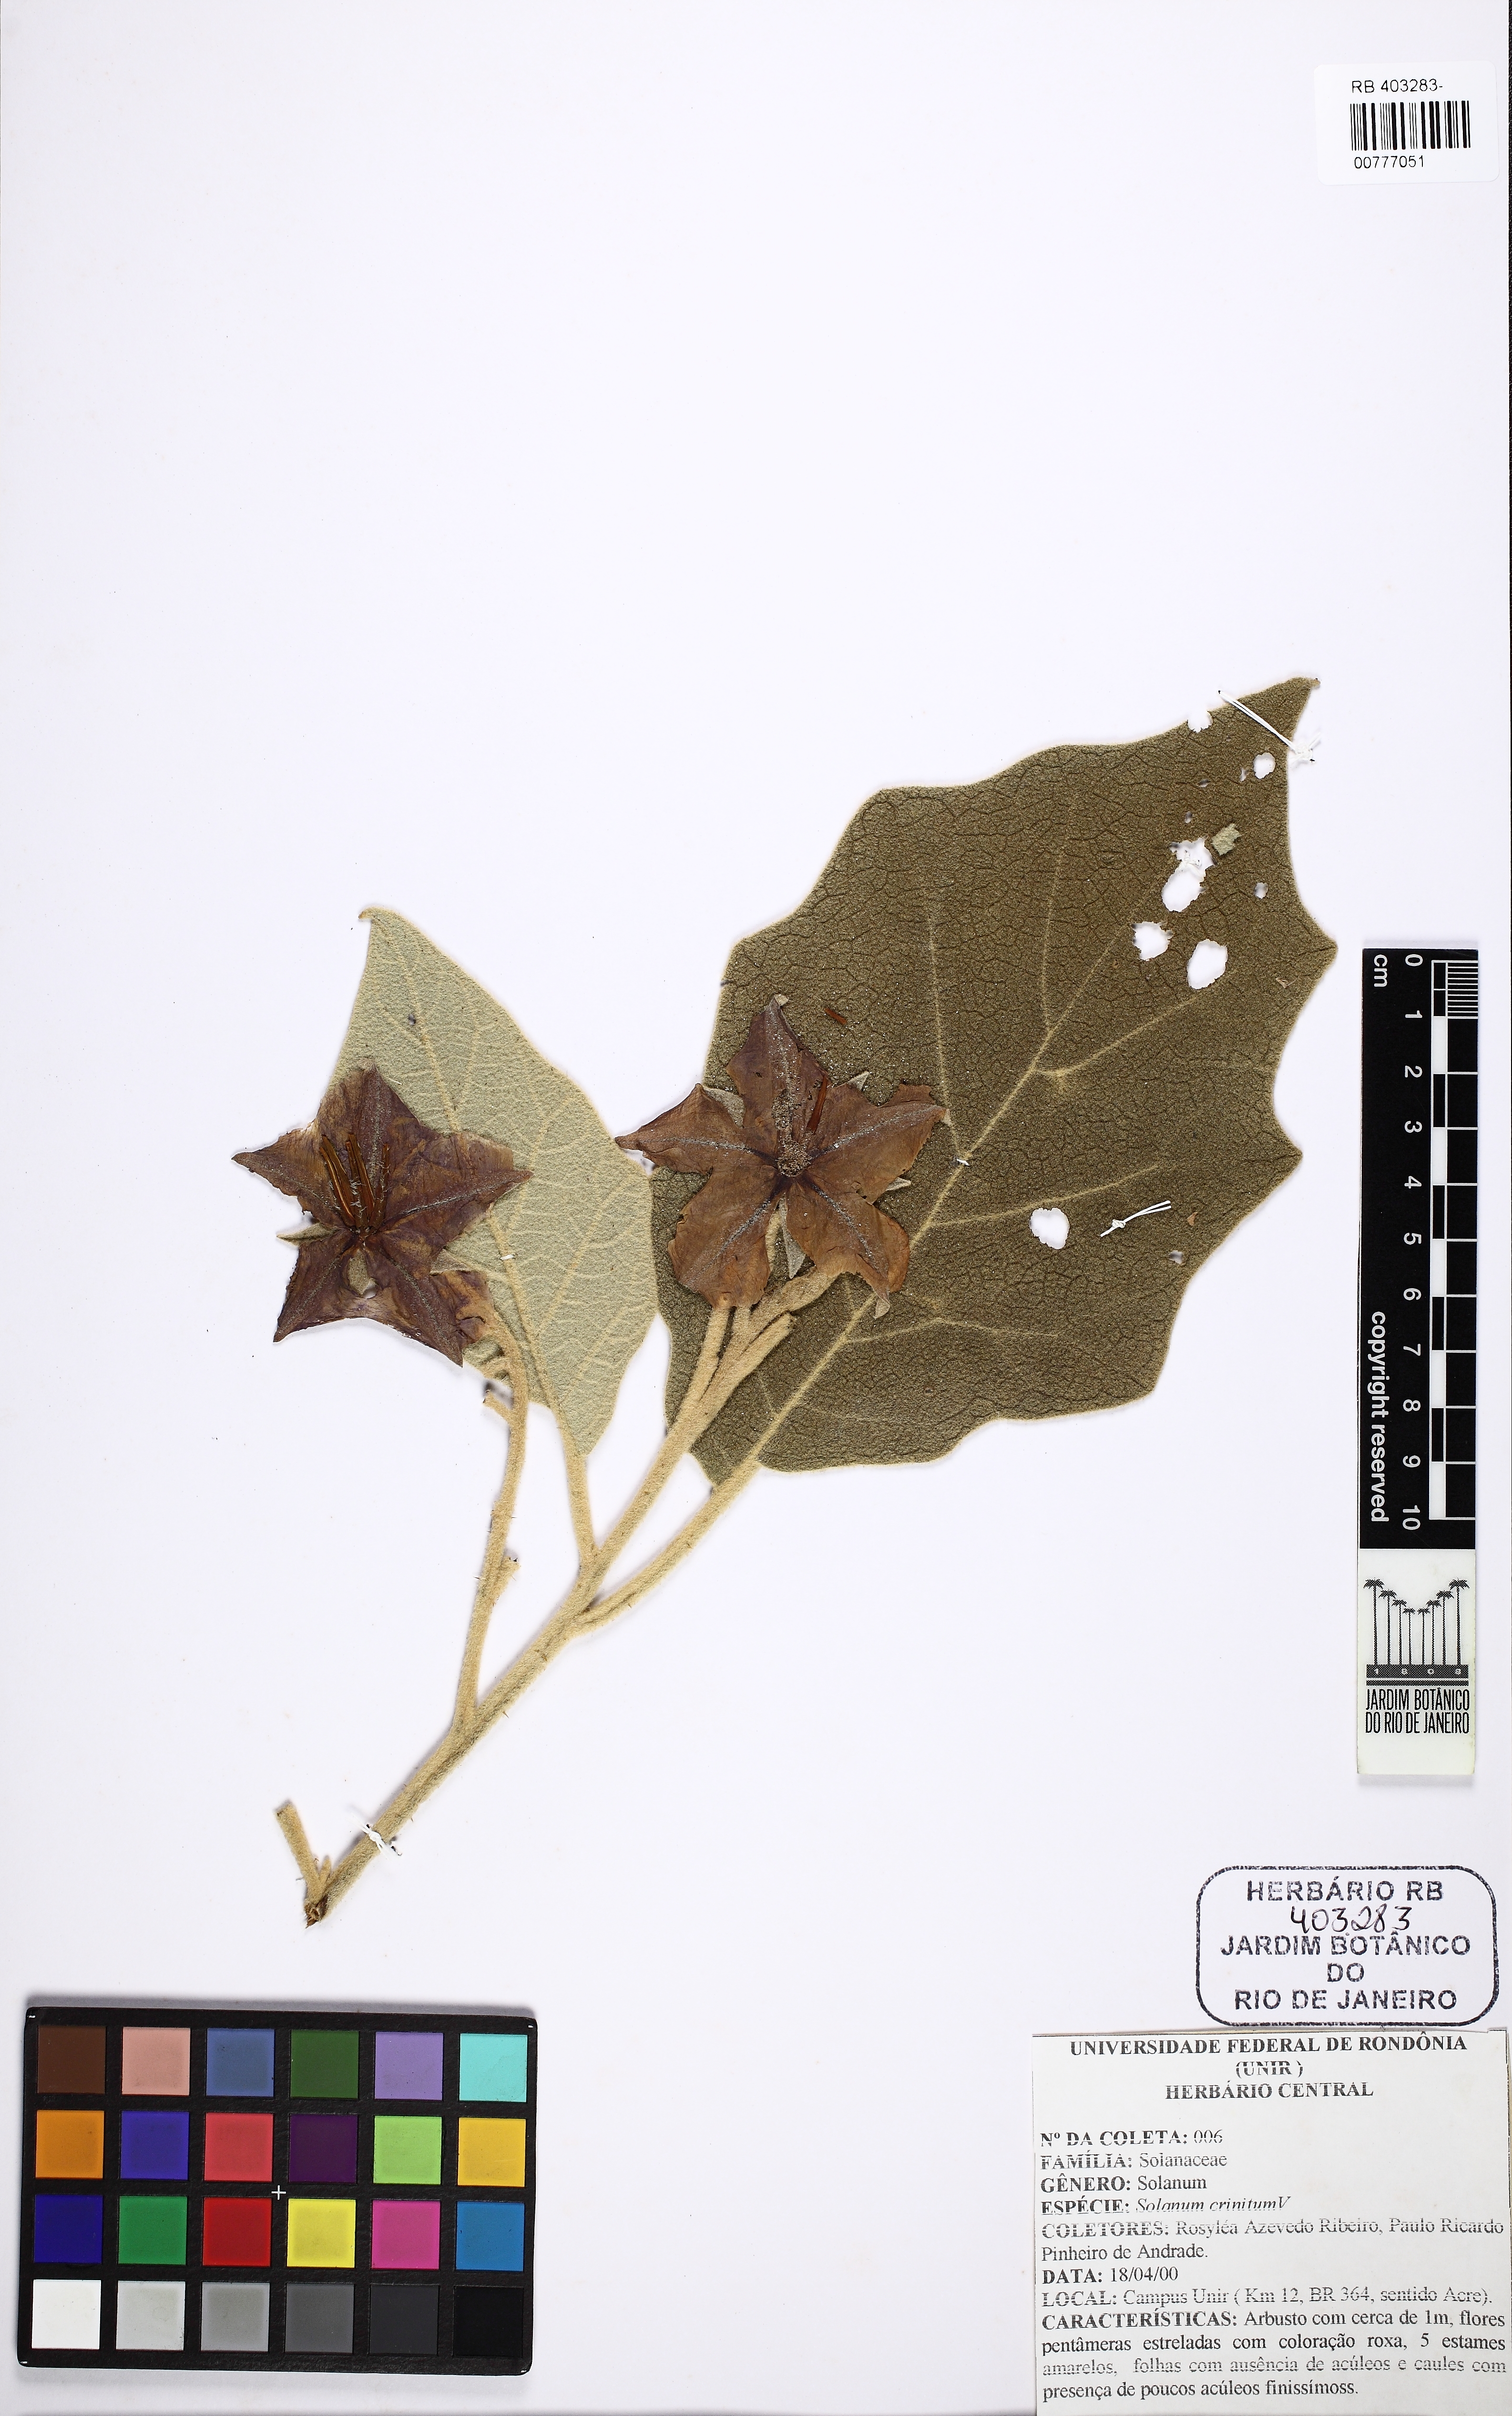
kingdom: Plantae
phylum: Tracheophyta
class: Magnoliopsida
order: Solanales
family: Solanaceae
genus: Solanum
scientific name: Solanum crinitum
